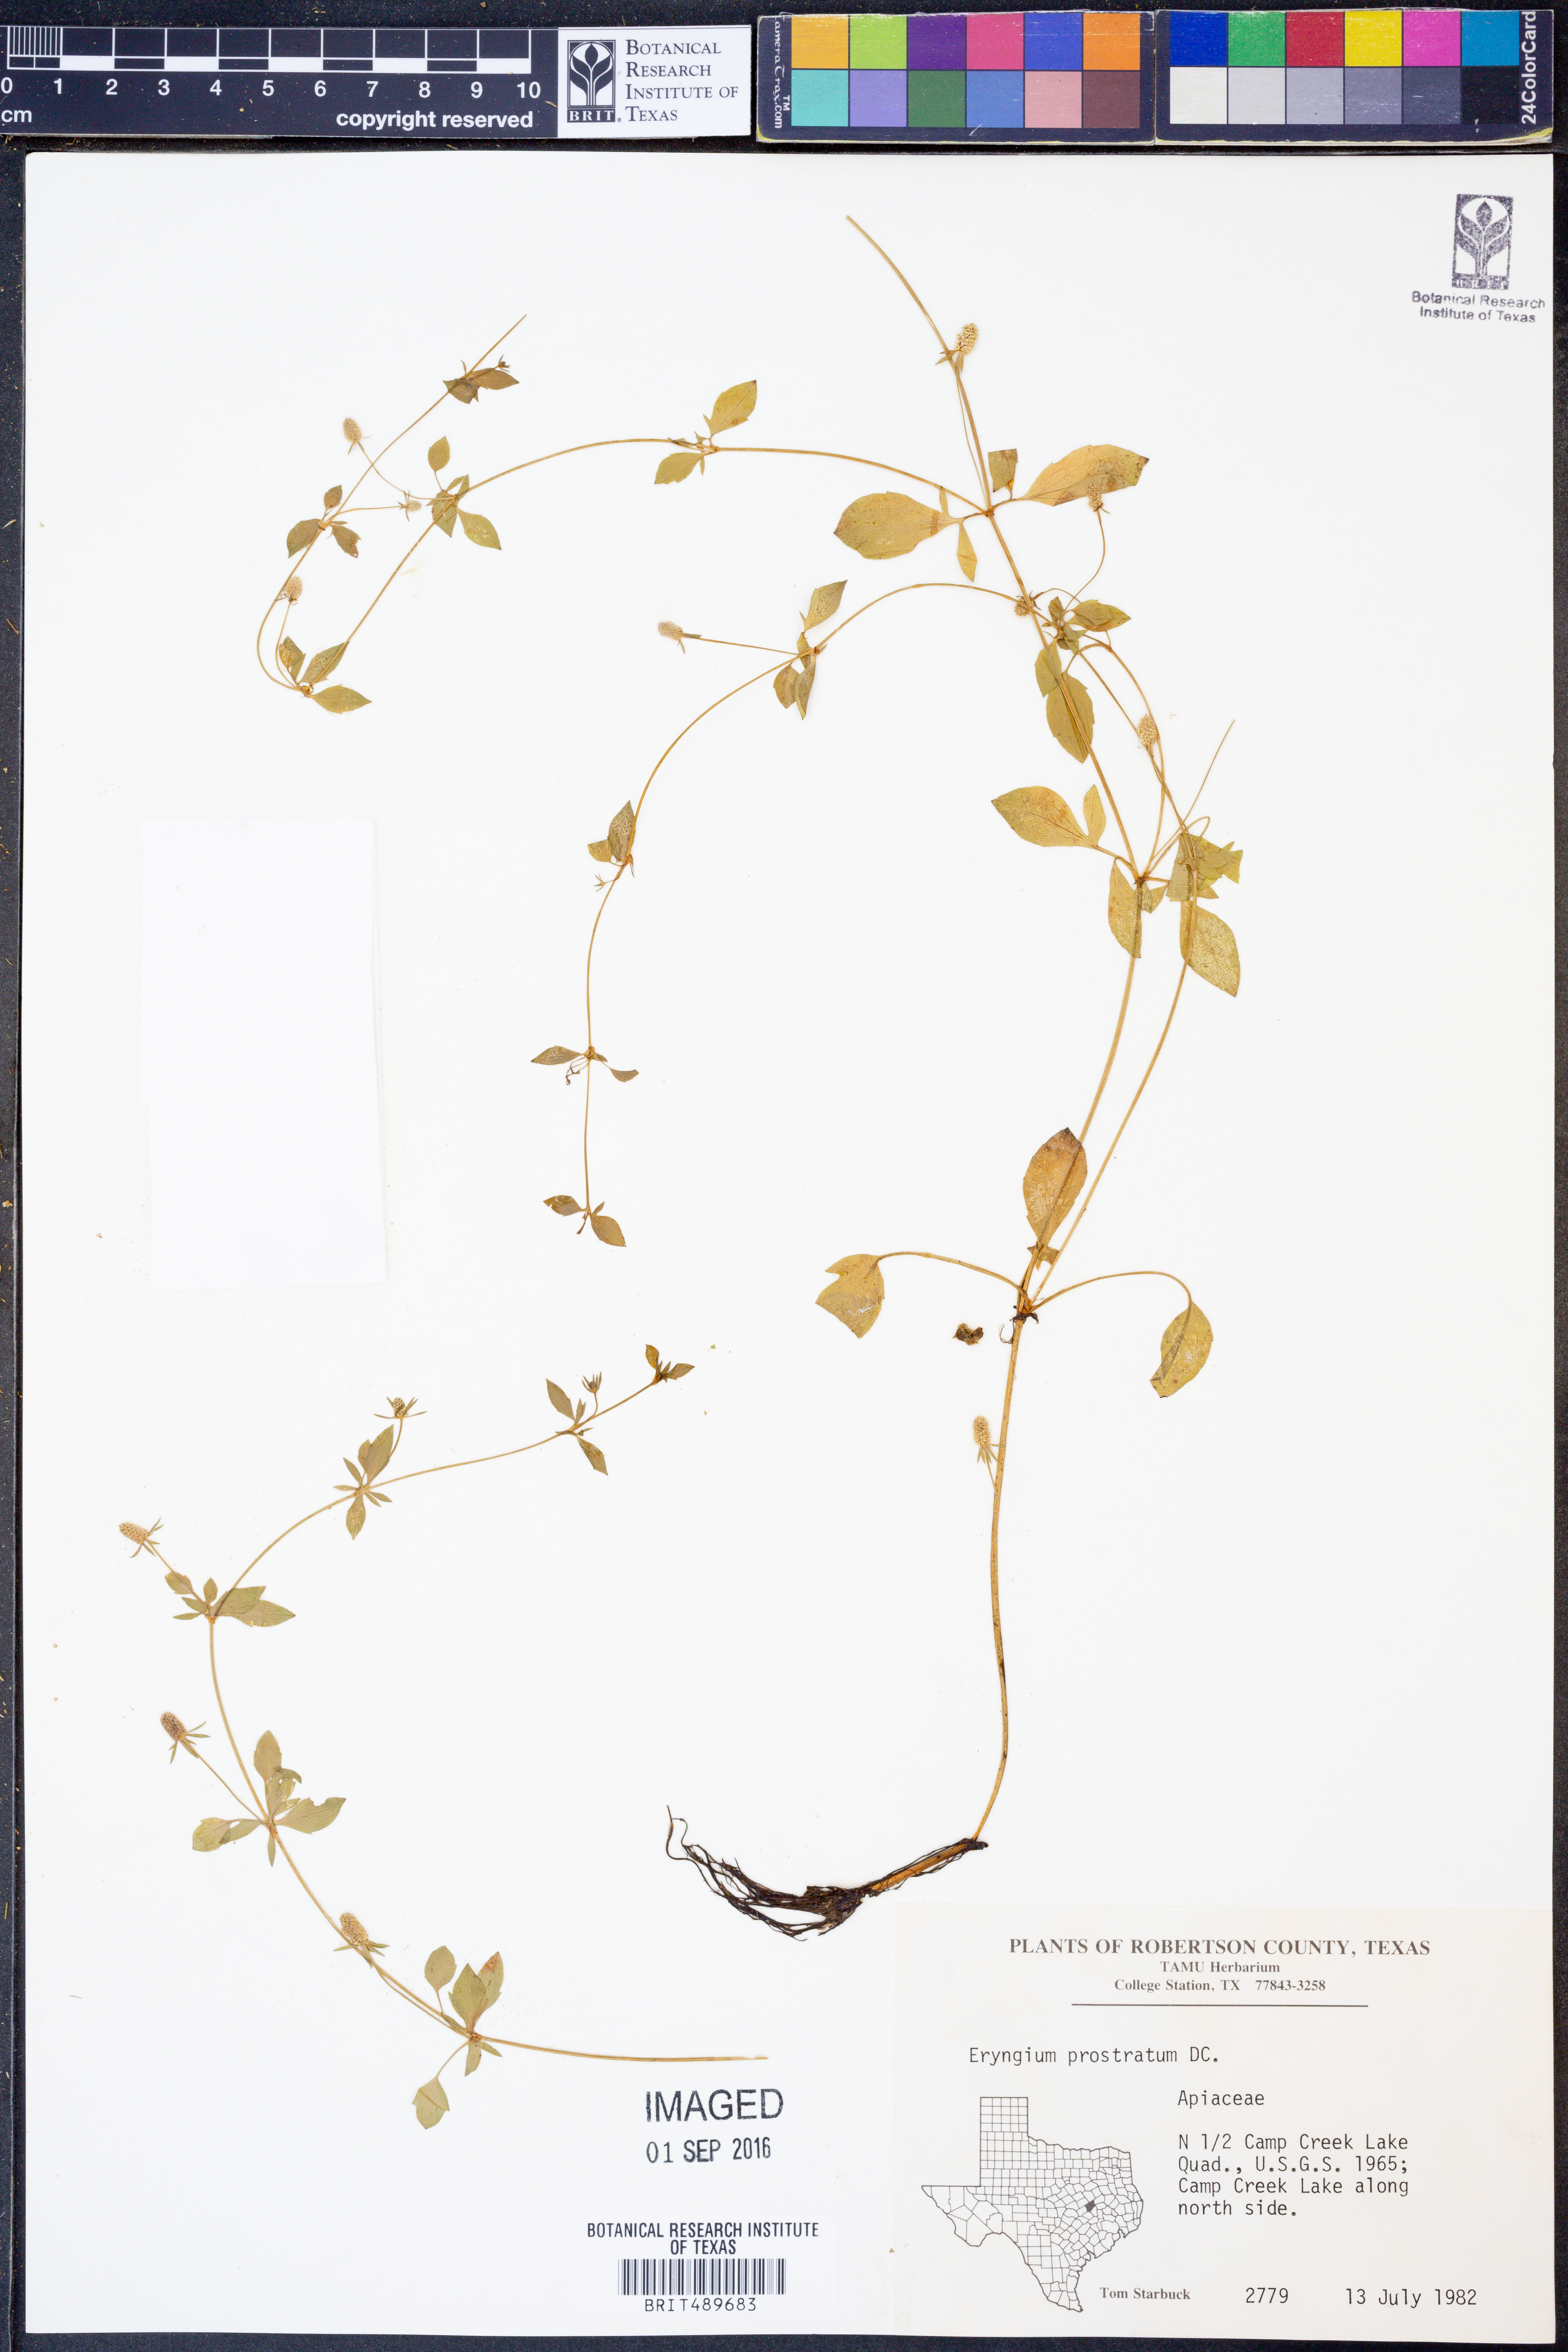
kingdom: Plantae
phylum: Tracheophyta
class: Magnoliopsida
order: Apiales
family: Apiaceae
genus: Eryngium
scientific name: Eryngium prostratum
